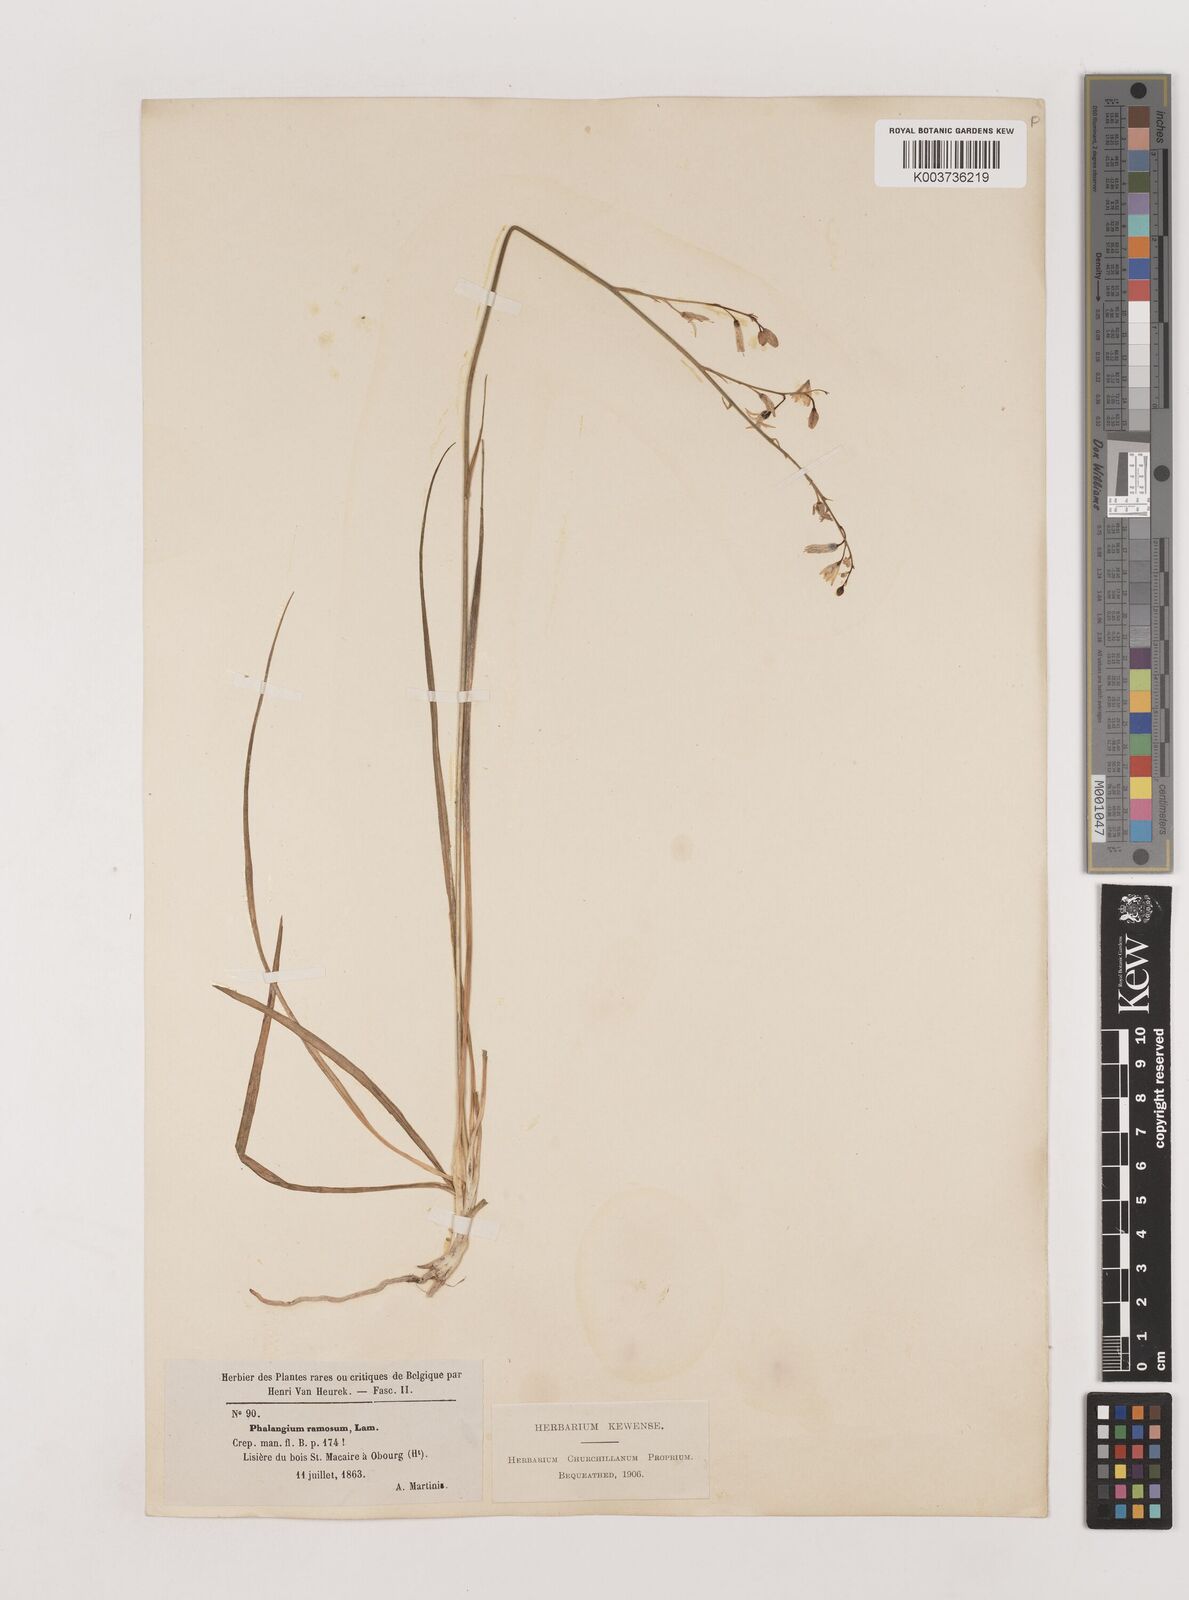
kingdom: Plantae
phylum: Tracheophyta
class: Liliopsida
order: Asparagales
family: Asparagaceae
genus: Anthericum
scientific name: Anthericum ramosum
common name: Branched st. bernard's-lily
